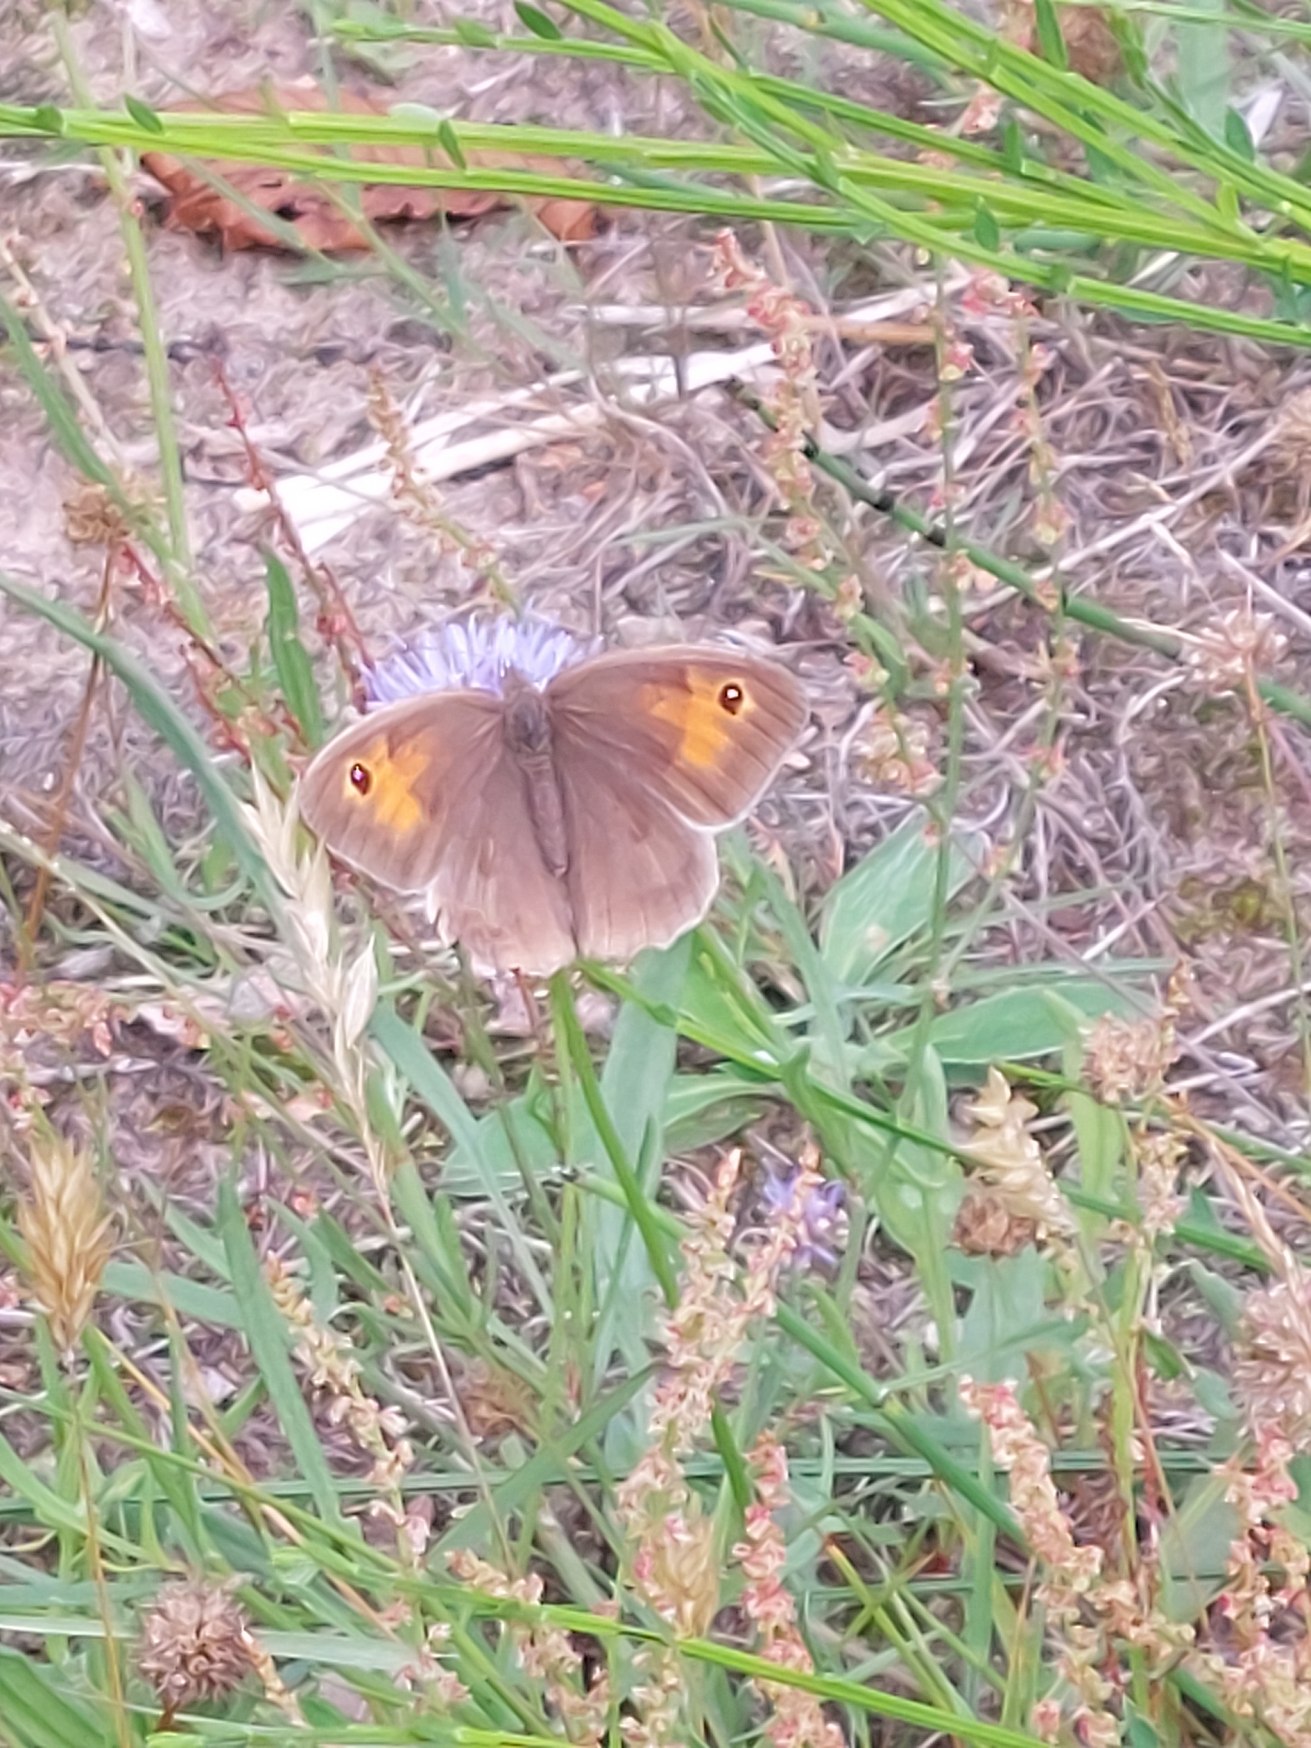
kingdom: Animalia
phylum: Arthropoda
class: Insecta
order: Lepidoptera
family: Nymphalidae
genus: Maniola
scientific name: Maniola jurtina
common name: Græsrandøje
